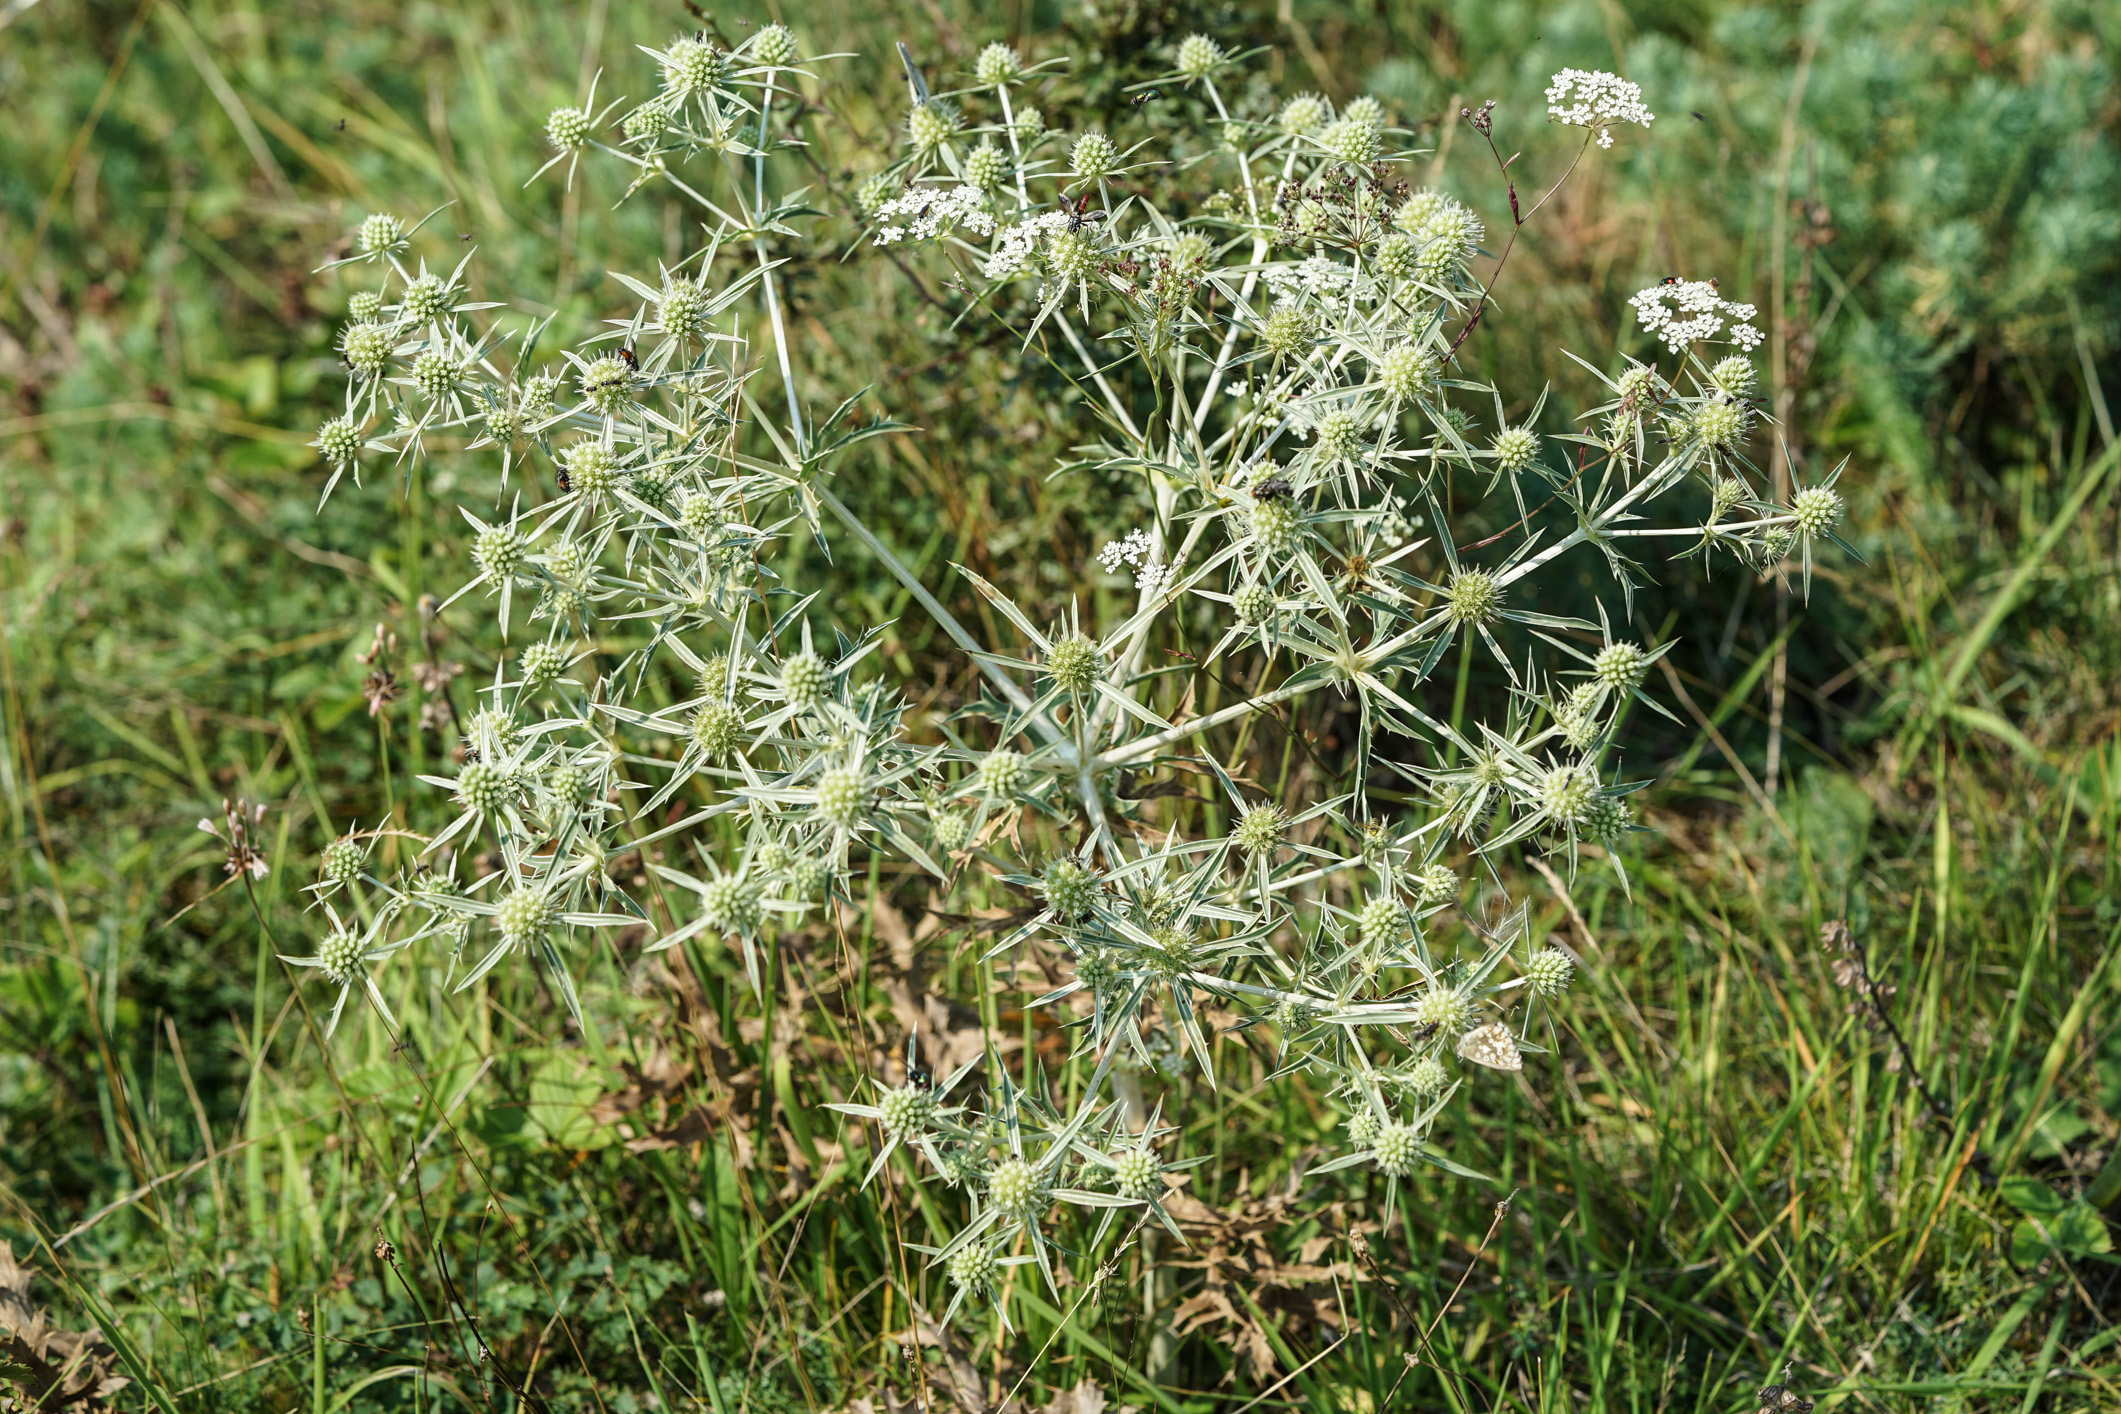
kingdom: Plantae
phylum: Tracheophyta
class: Magnoliopsida
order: Apiales
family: Apiaceae
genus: Eryngium
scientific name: Eryngium campestre
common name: Field eryngo
